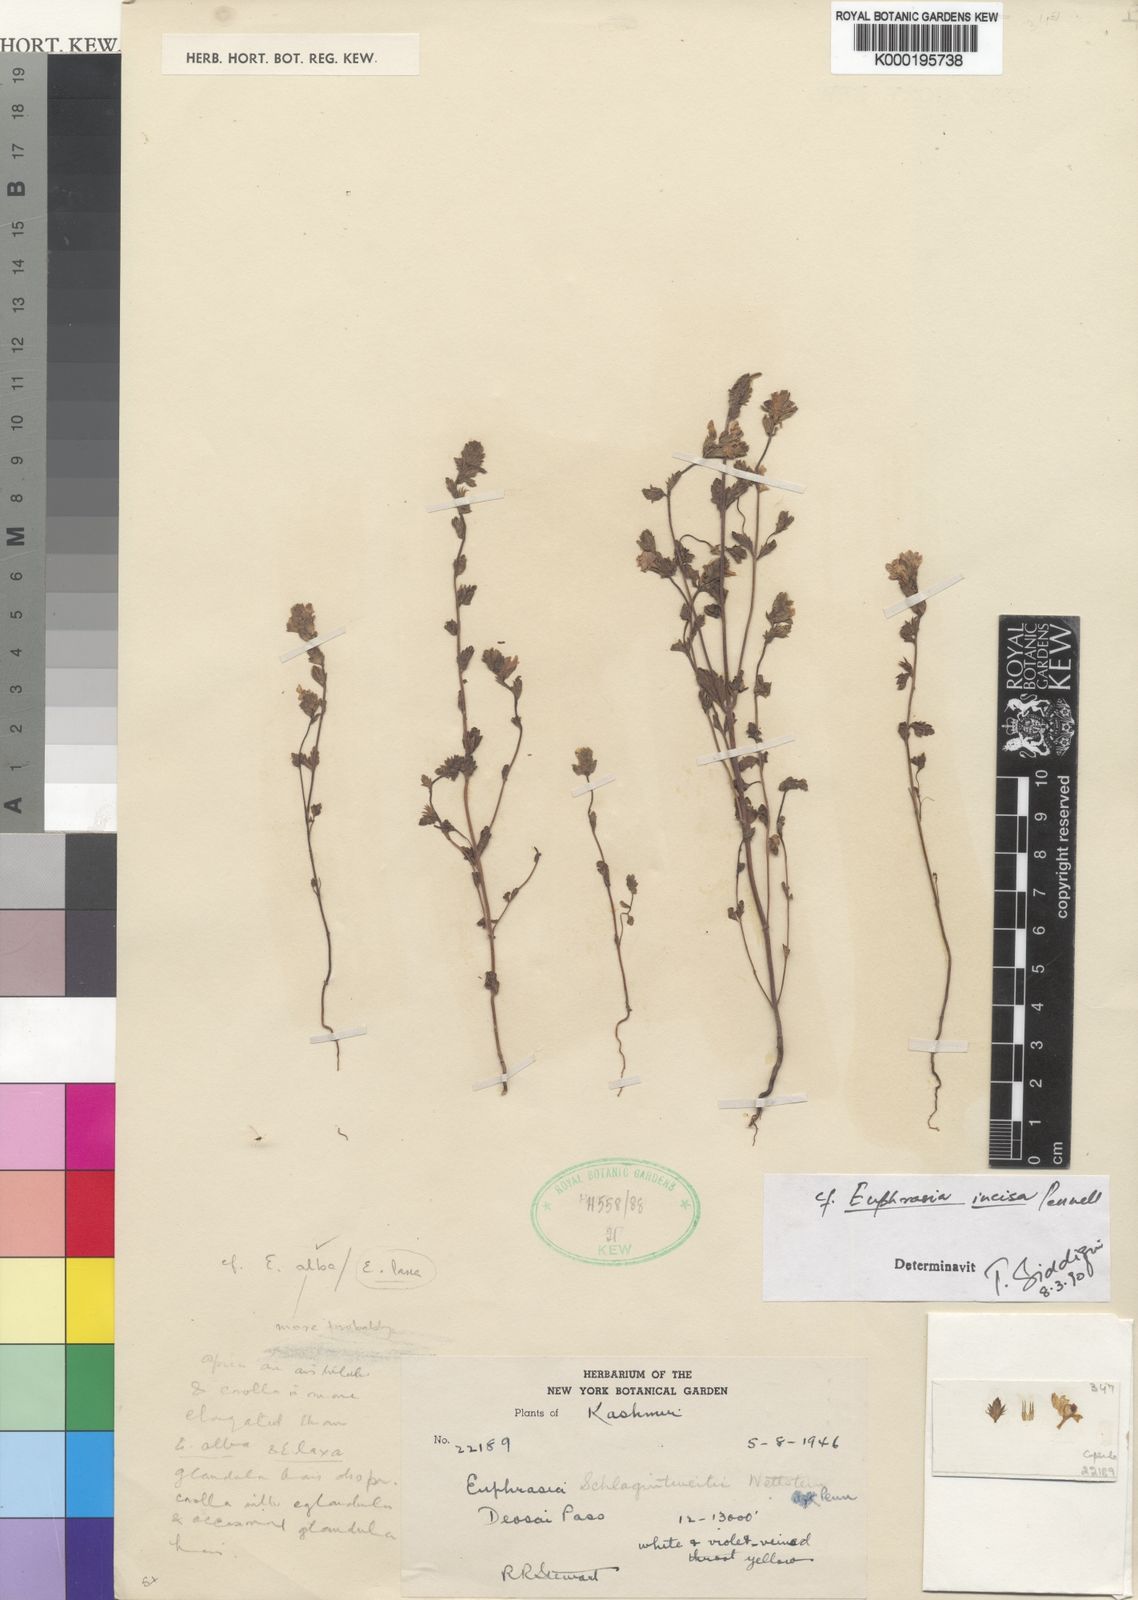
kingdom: Plantae
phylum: Tracheophyta
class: Magnoliopsida
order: Lamiales
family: Orobanchaceae
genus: Euphrasia
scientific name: Euphrasia incisa
